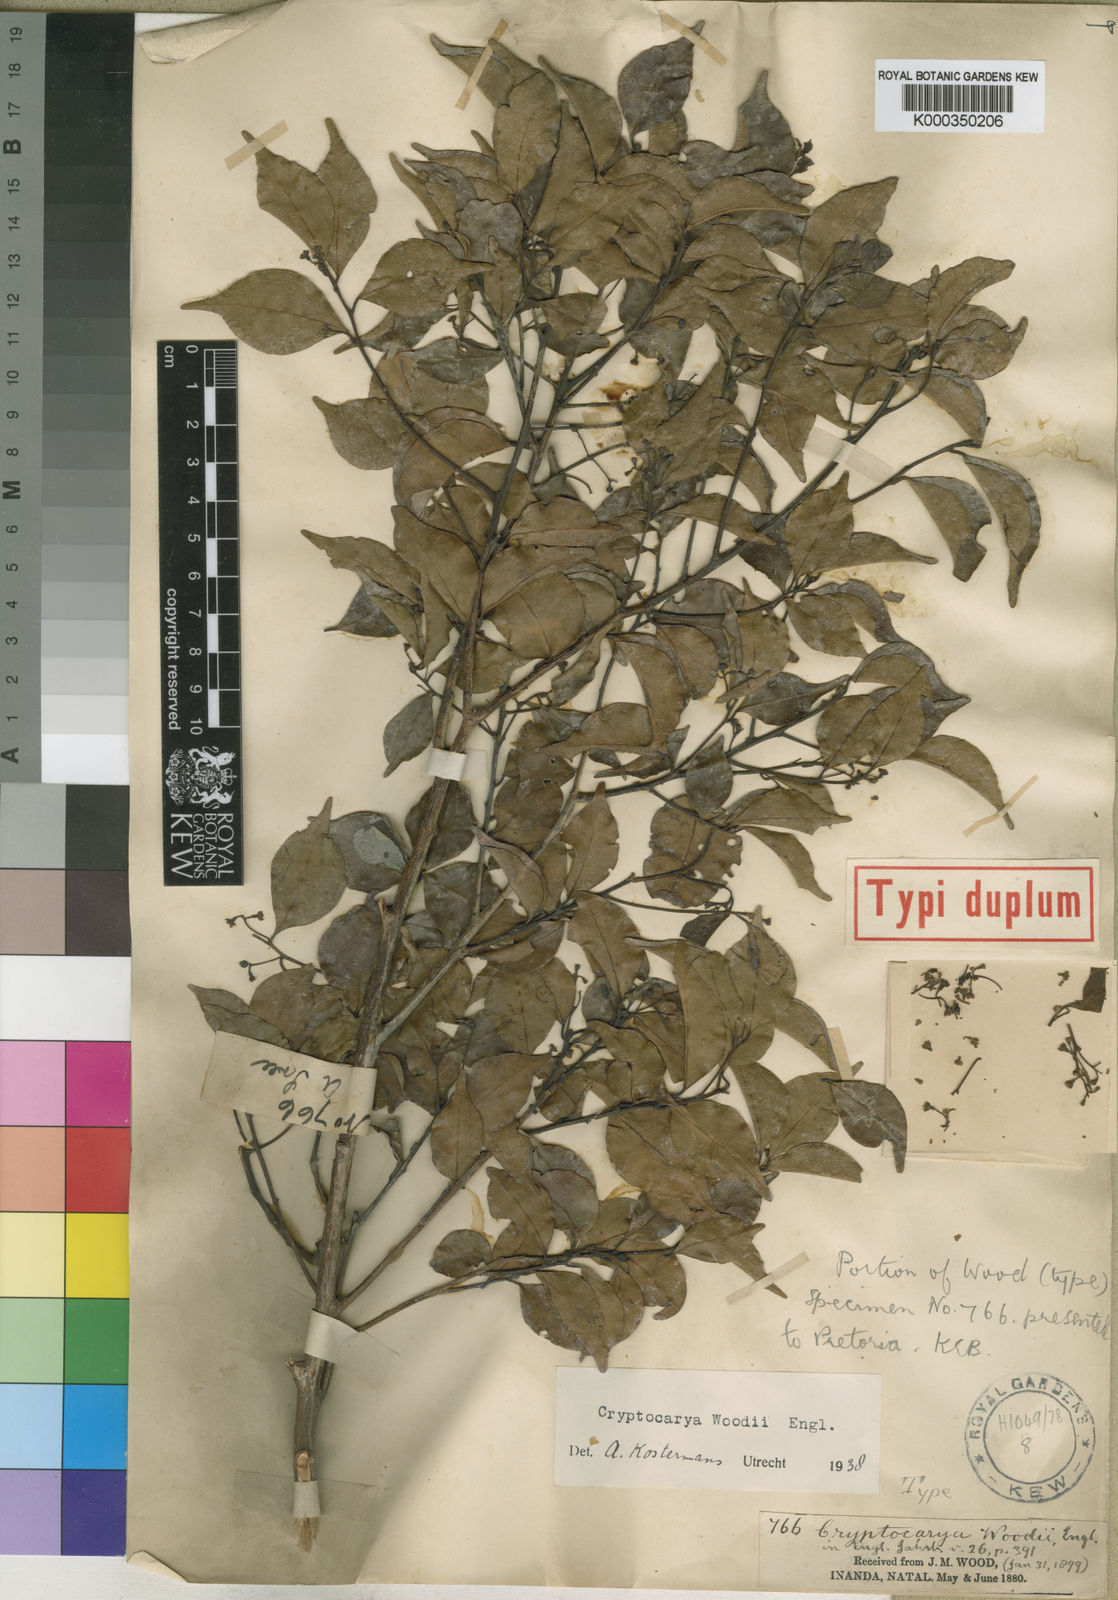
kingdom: Plantae
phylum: Tracheophyta
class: Magnoliopsida
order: Laurales
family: Lauraceae
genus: Cryptocarya
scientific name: Cryptocarya woodii
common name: Bastard camphor tree
